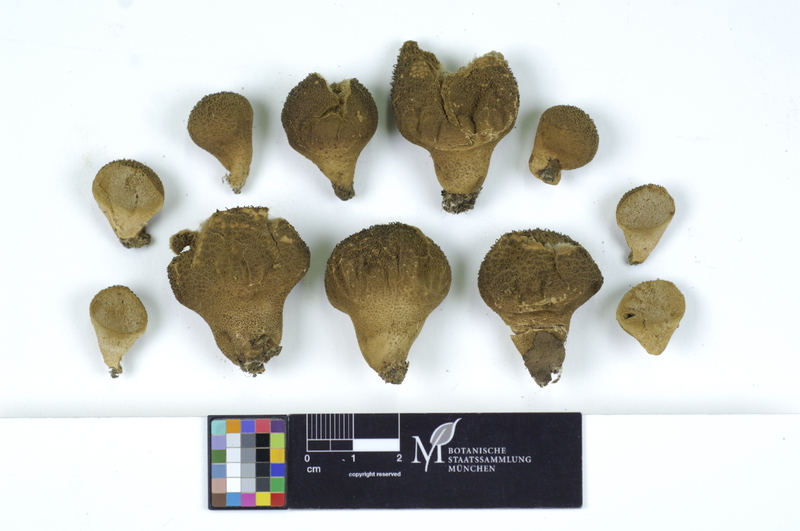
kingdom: Fungi
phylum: Basidiomycota
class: Agaricomycetes
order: Agaricales
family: Lycoperdaceae
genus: Lycoperdon
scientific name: Lycoperdon nigrescens
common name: Blackish puffball
